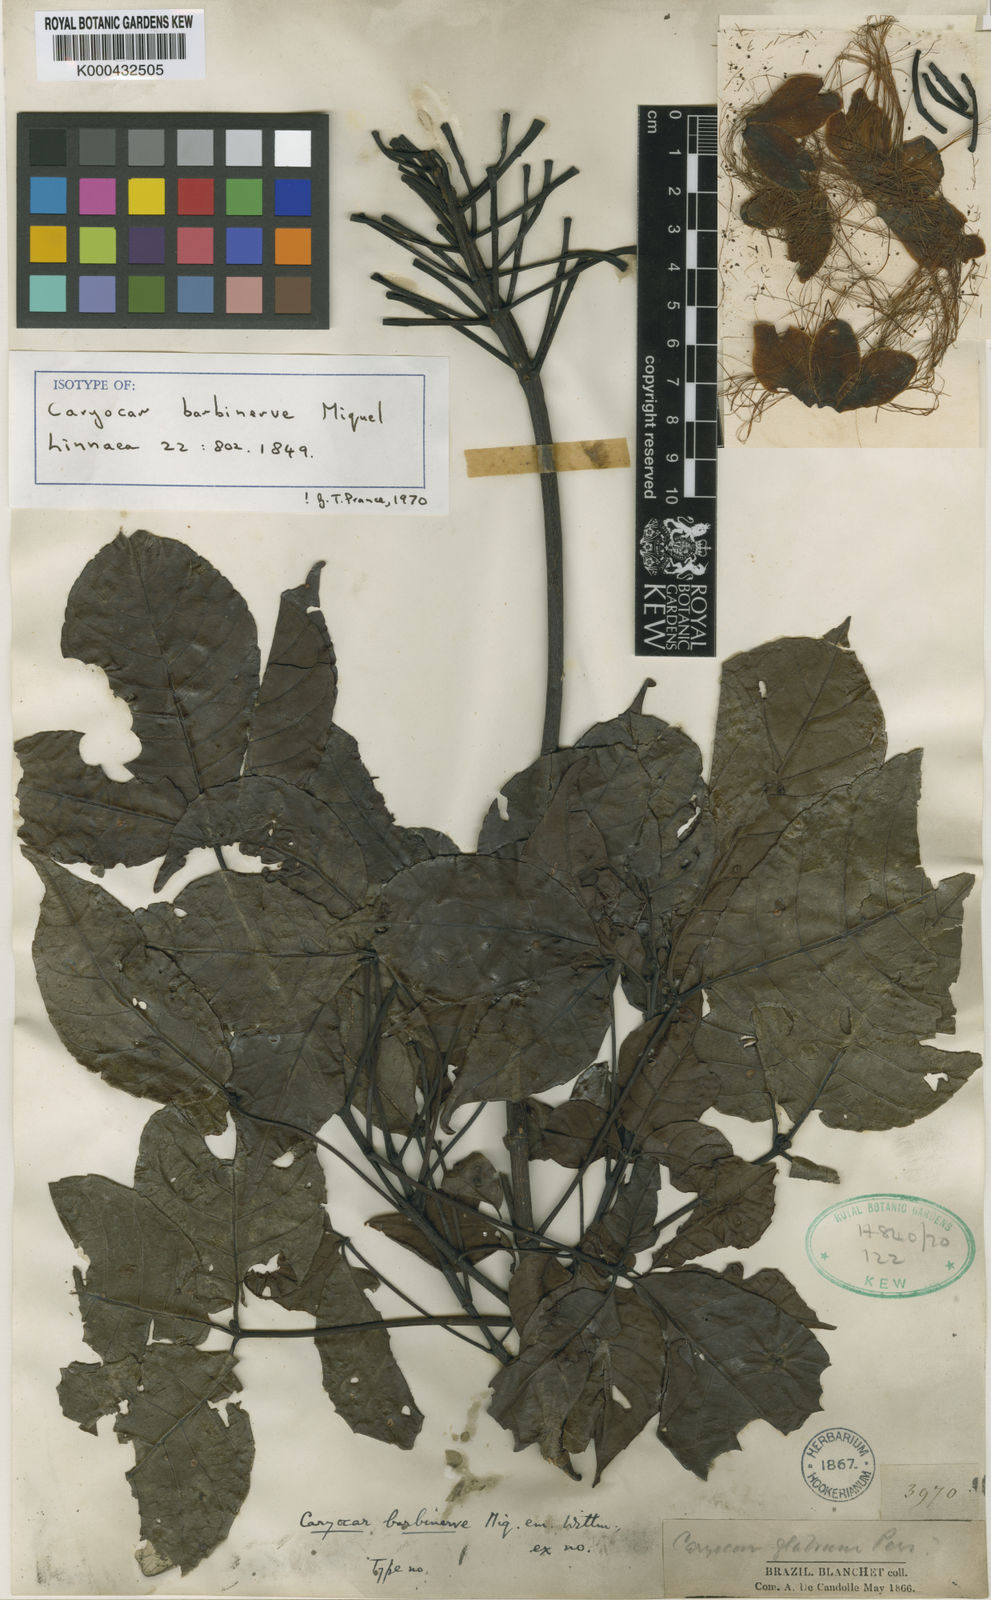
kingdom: Plantae
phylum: Tracheophyta
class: Magnoliopsida
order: Malpighiales
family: Caryocaraceae
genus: Caryocar
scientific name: Caryocar edule
